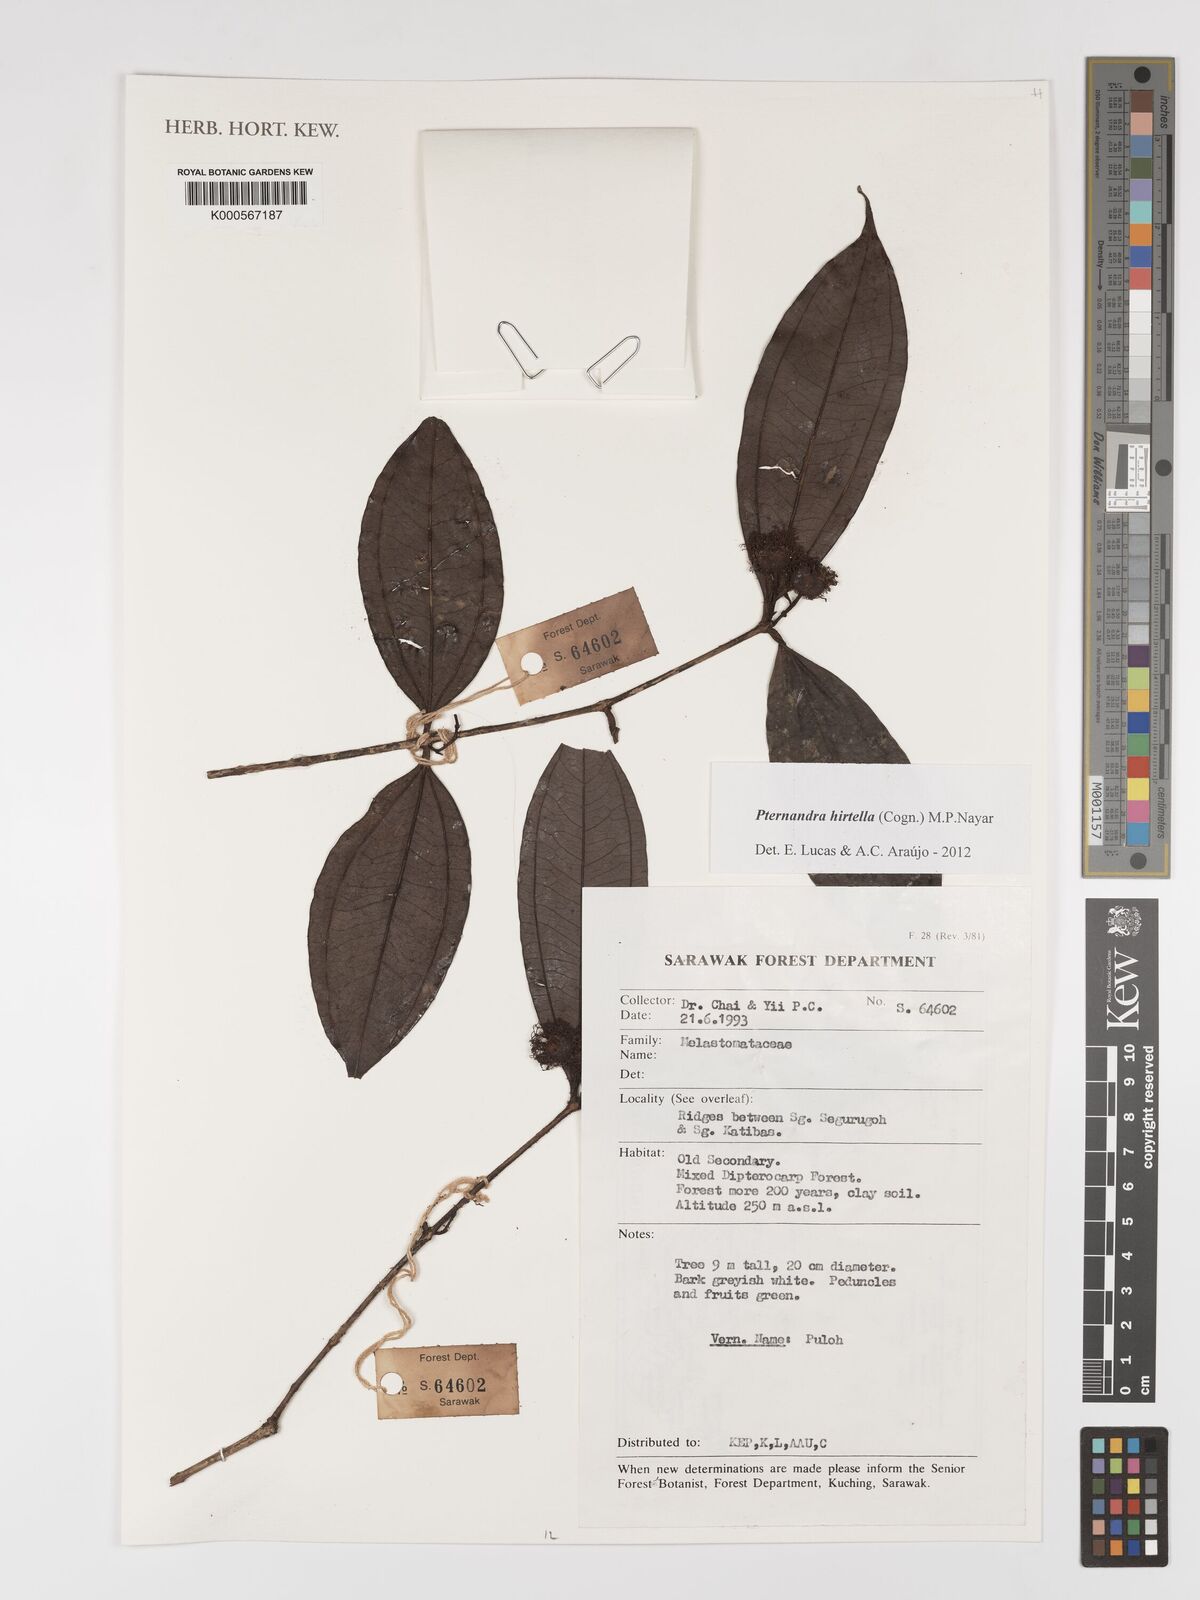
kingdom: Plantae
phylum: Tracheophyta
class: Magnoliopsida
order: Myrtales
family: Melastomataceae
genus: Pternandra
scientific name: Pternandra hirtella
